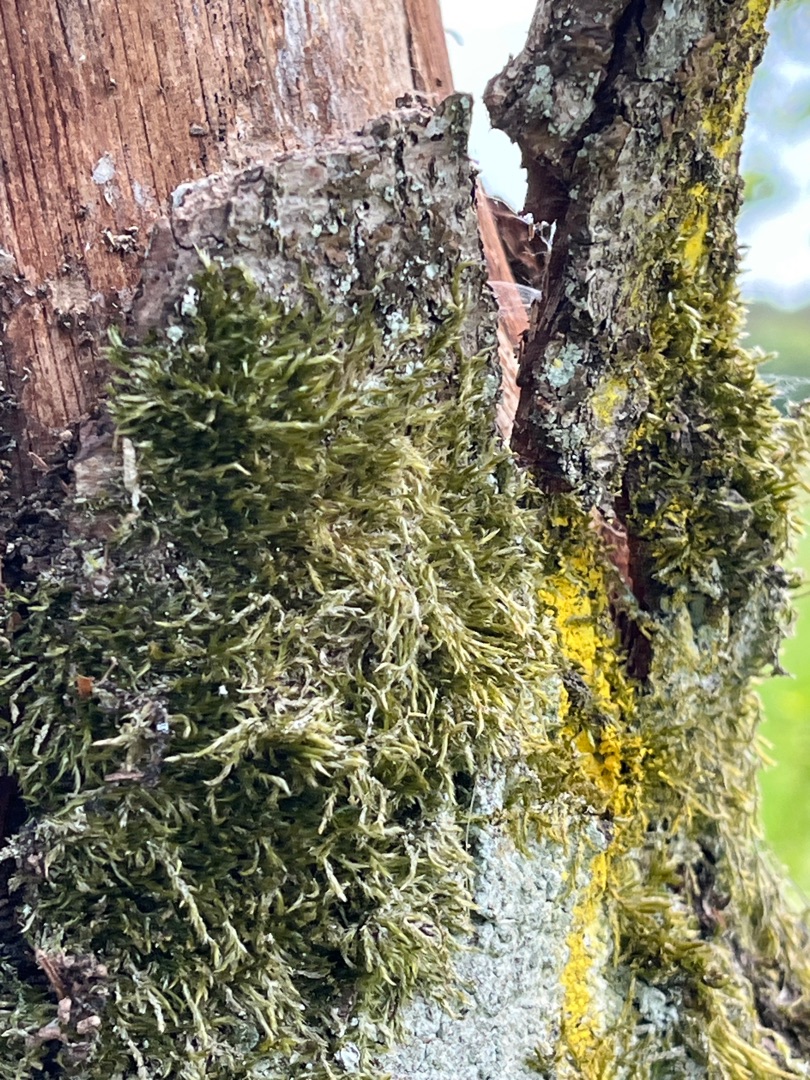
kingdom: Plantae
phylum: Bryophyta
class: Bryopsida
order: Hypnales
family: Hypnaceae
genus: Hypnum
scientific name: Hypnum
